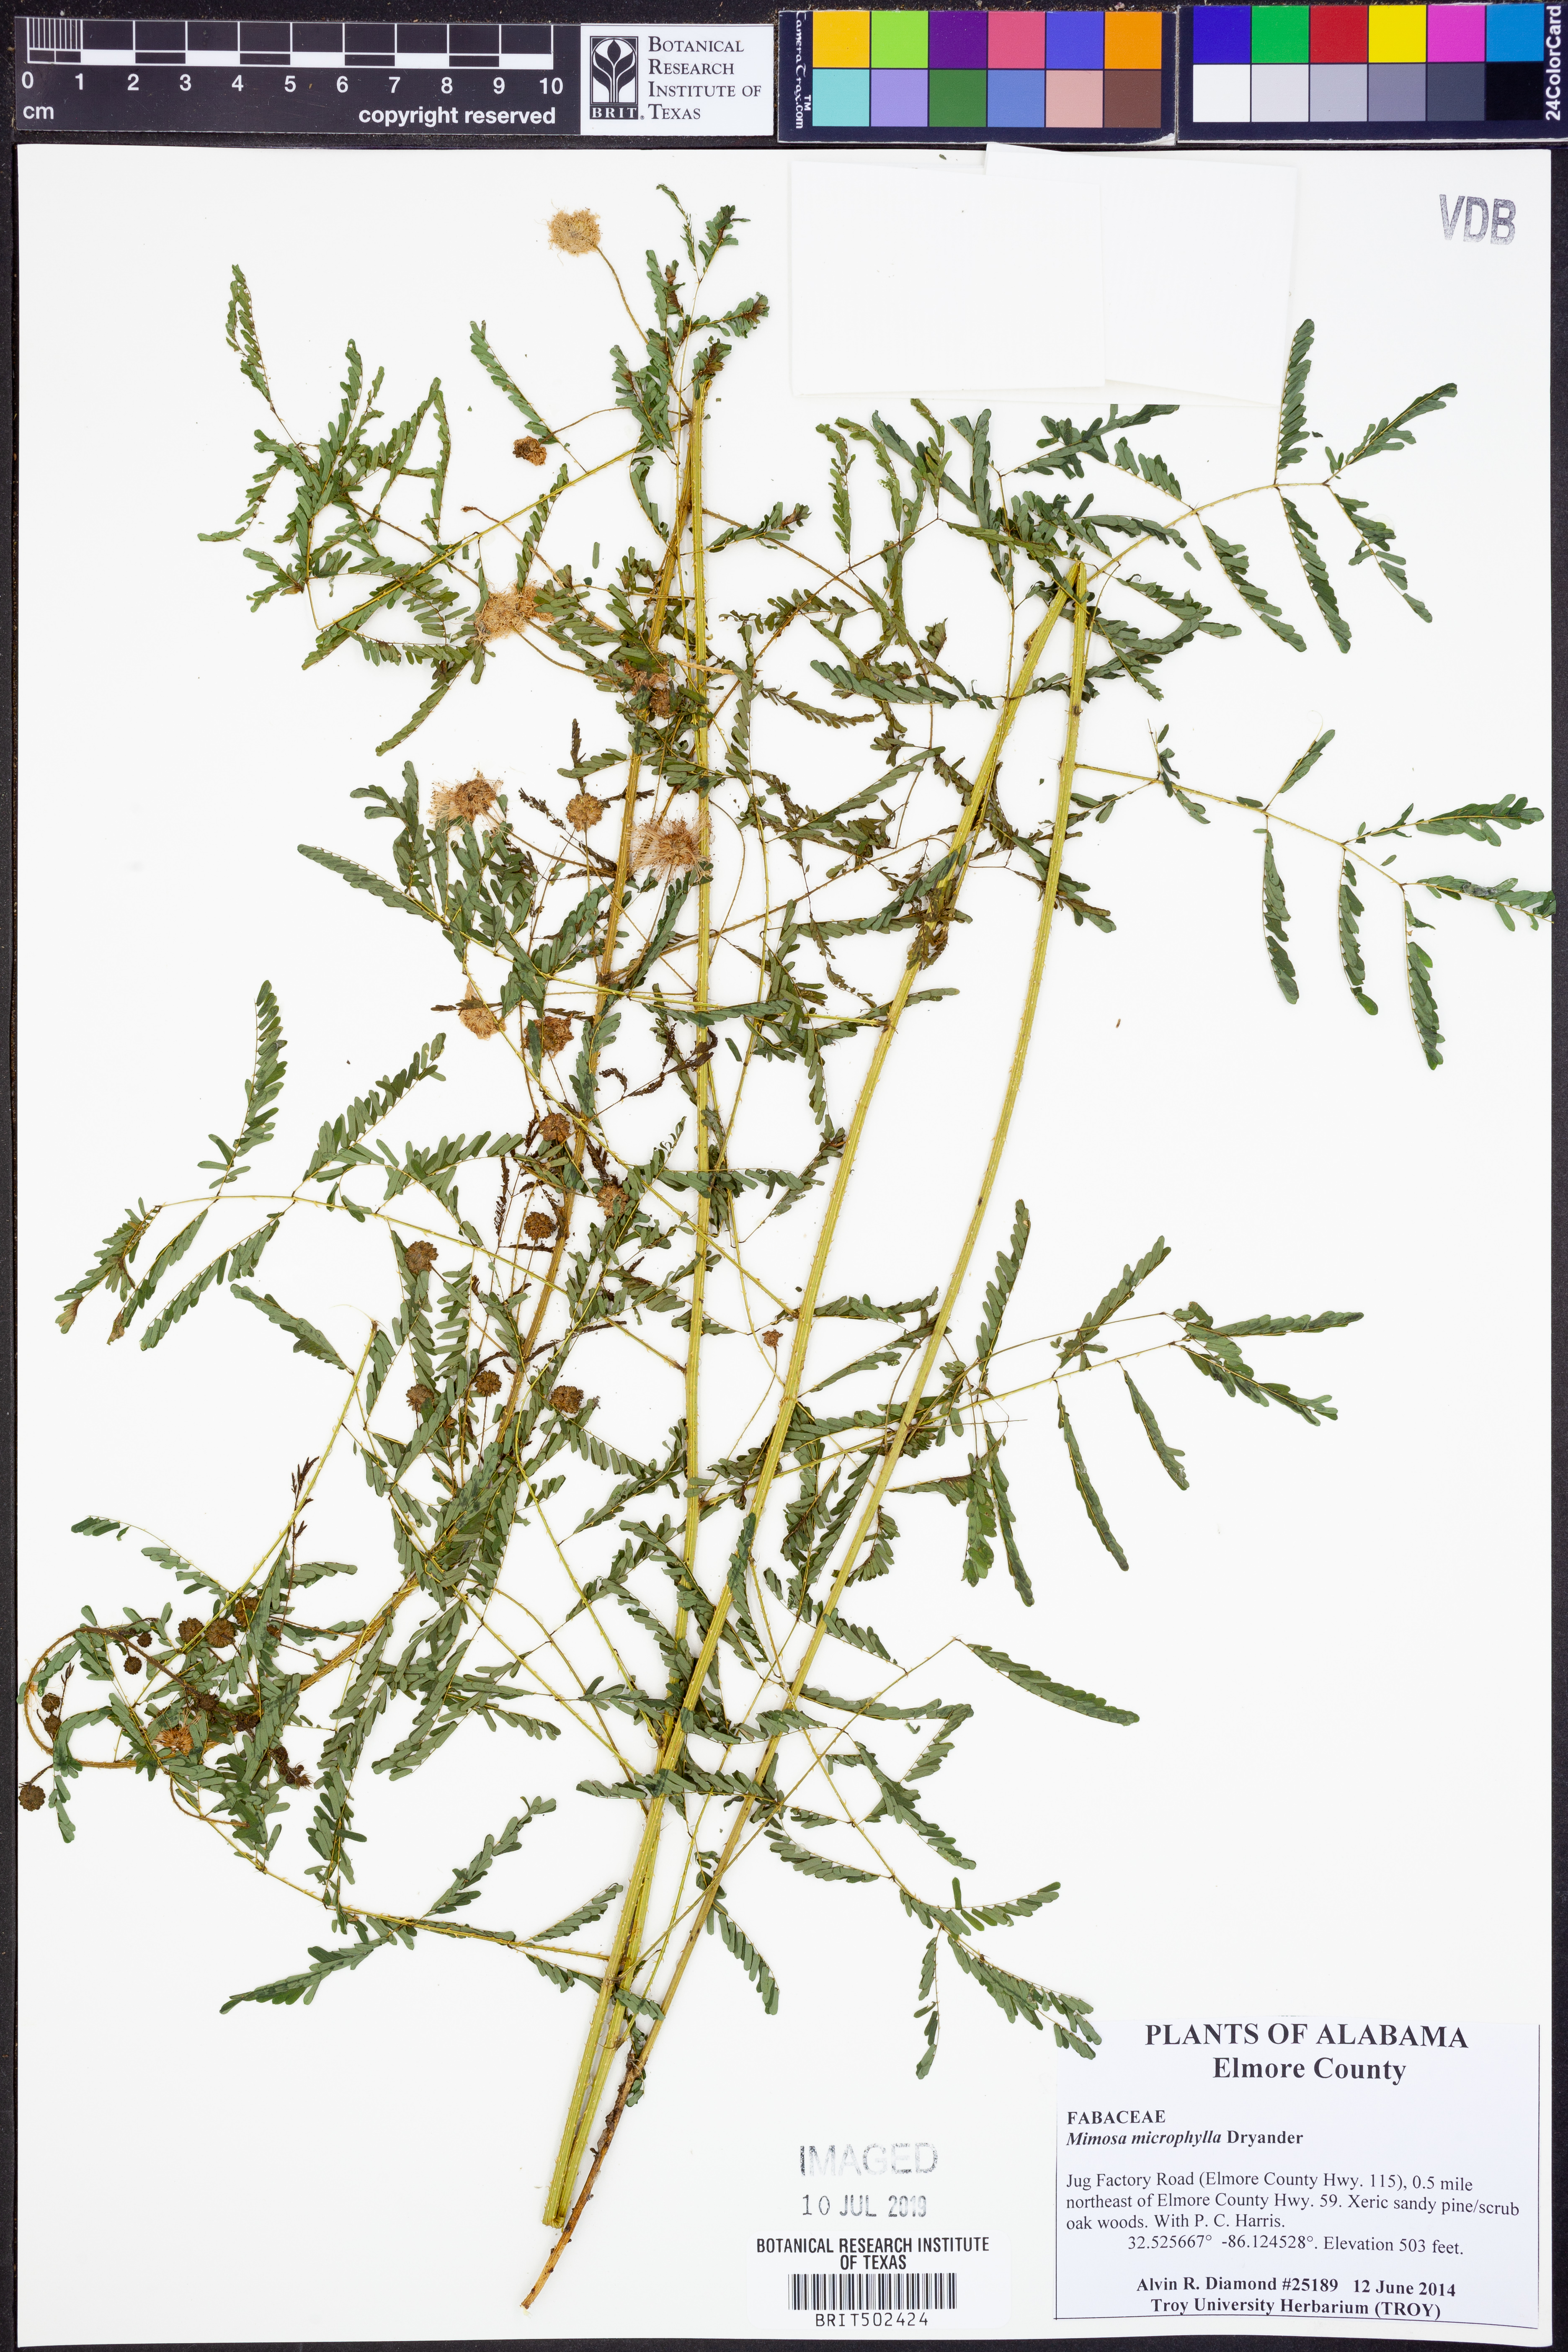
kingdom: Plantae
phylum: Tracheophyta
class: Magnoliopsida
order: Fabales
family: Fabaceae
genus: Mimosa
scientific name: Mimosa quadrivalvis
